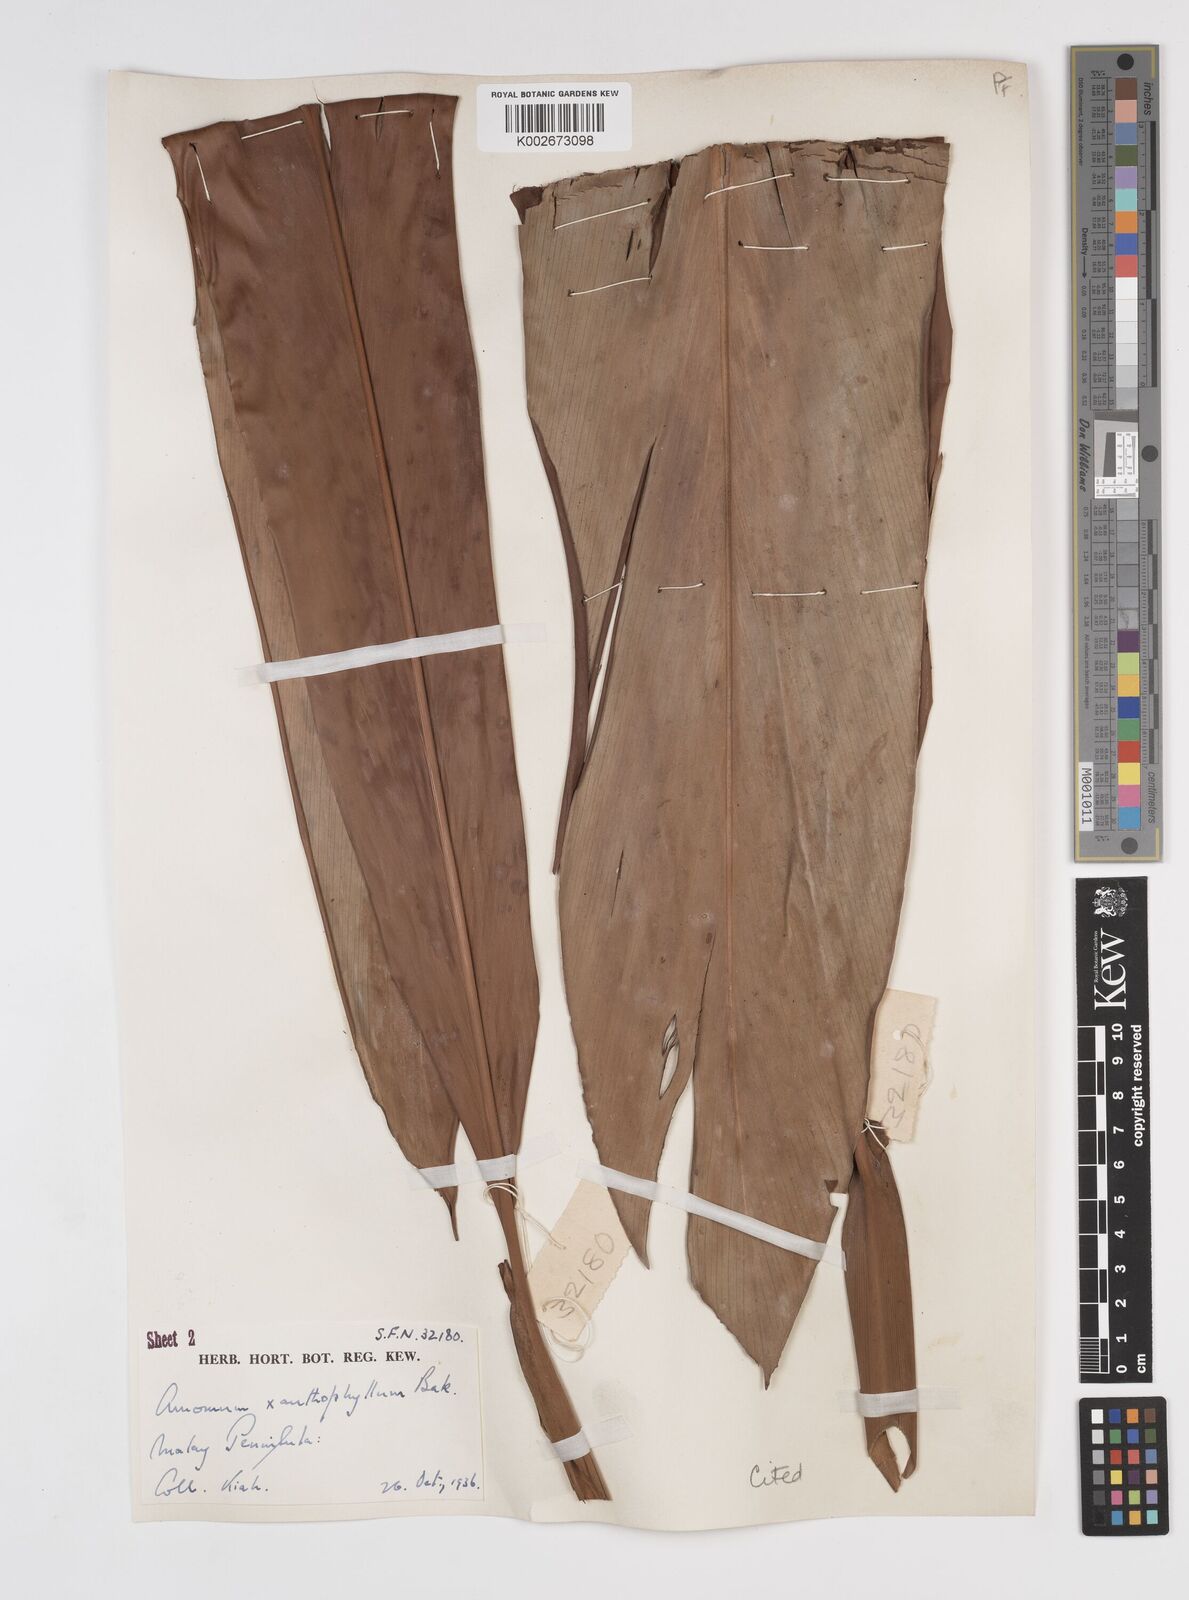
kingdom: Plantae
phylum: Tracheophyta
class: Liliopsida
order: Zingiberales
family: Zingiberaceae
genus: Conamomum
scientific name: Conamomum xanthophlebium
